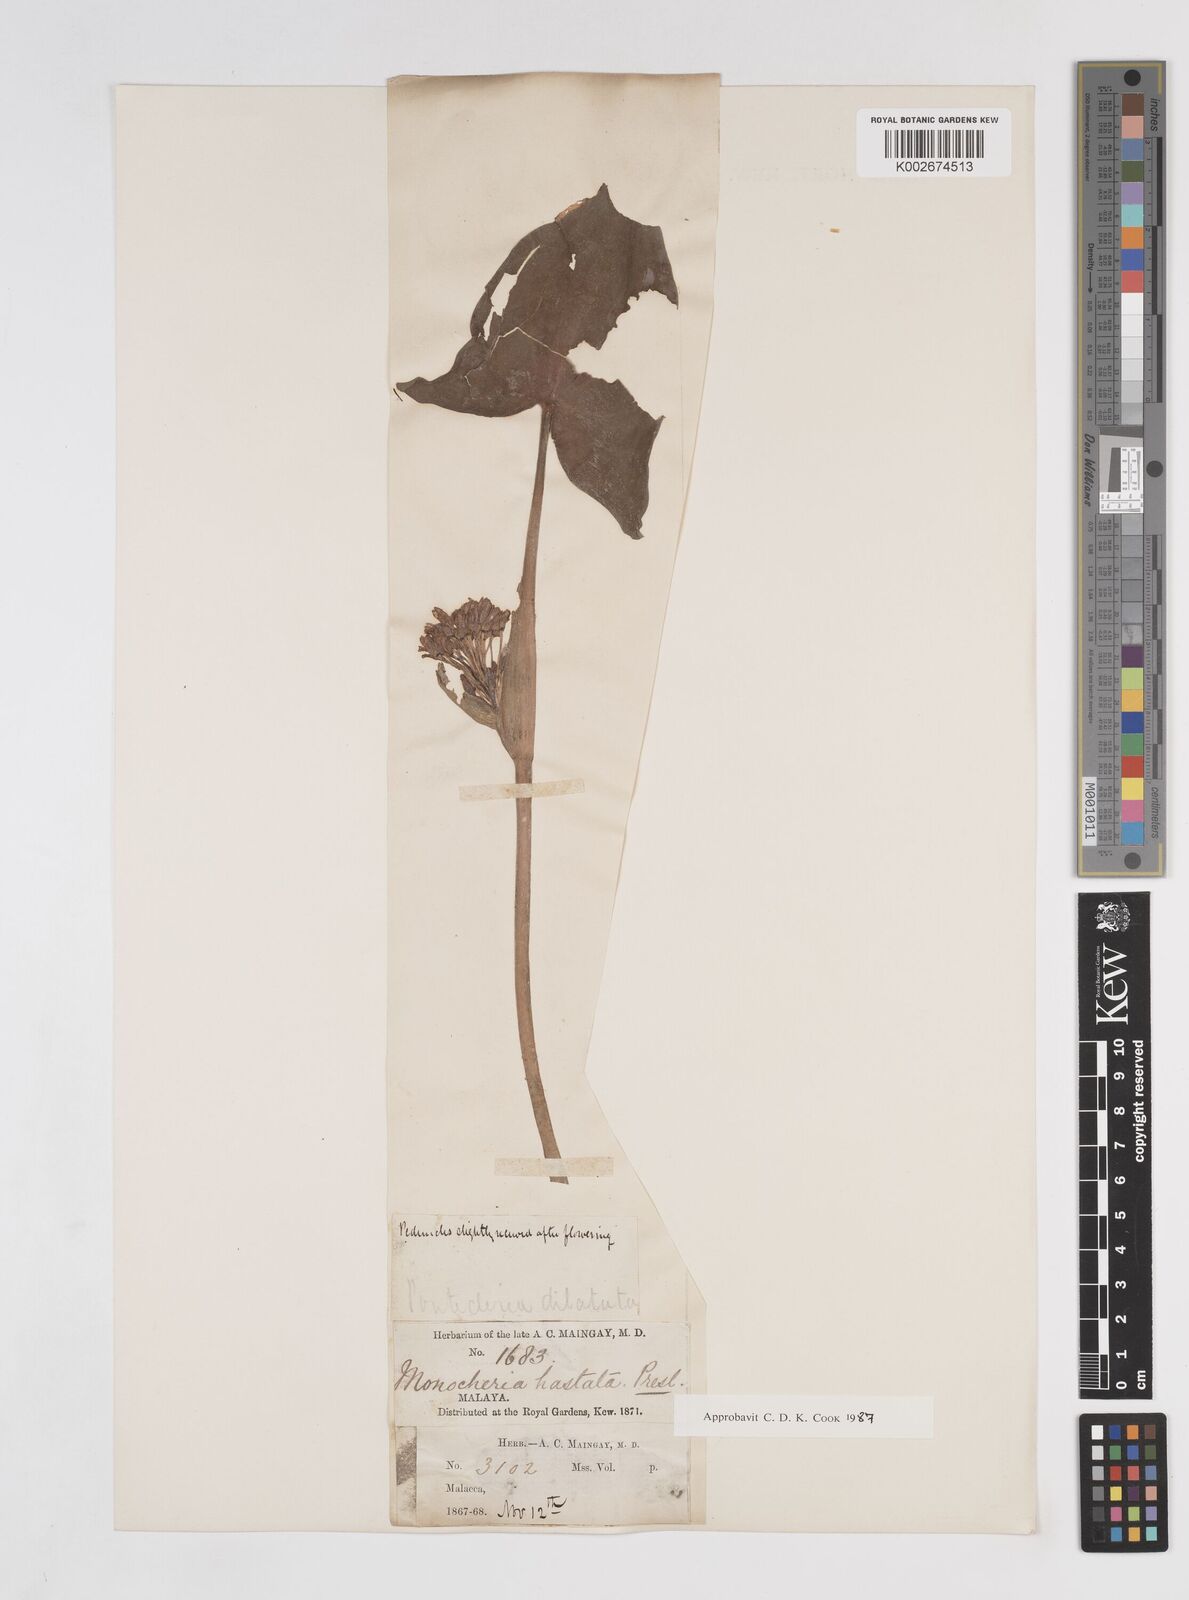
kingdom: Plantae
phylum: Tracheophyta
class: Liliopsida
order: Commelinales
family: Pontederiaceae
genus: Pontederia
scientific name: Pontederia vaginalis
